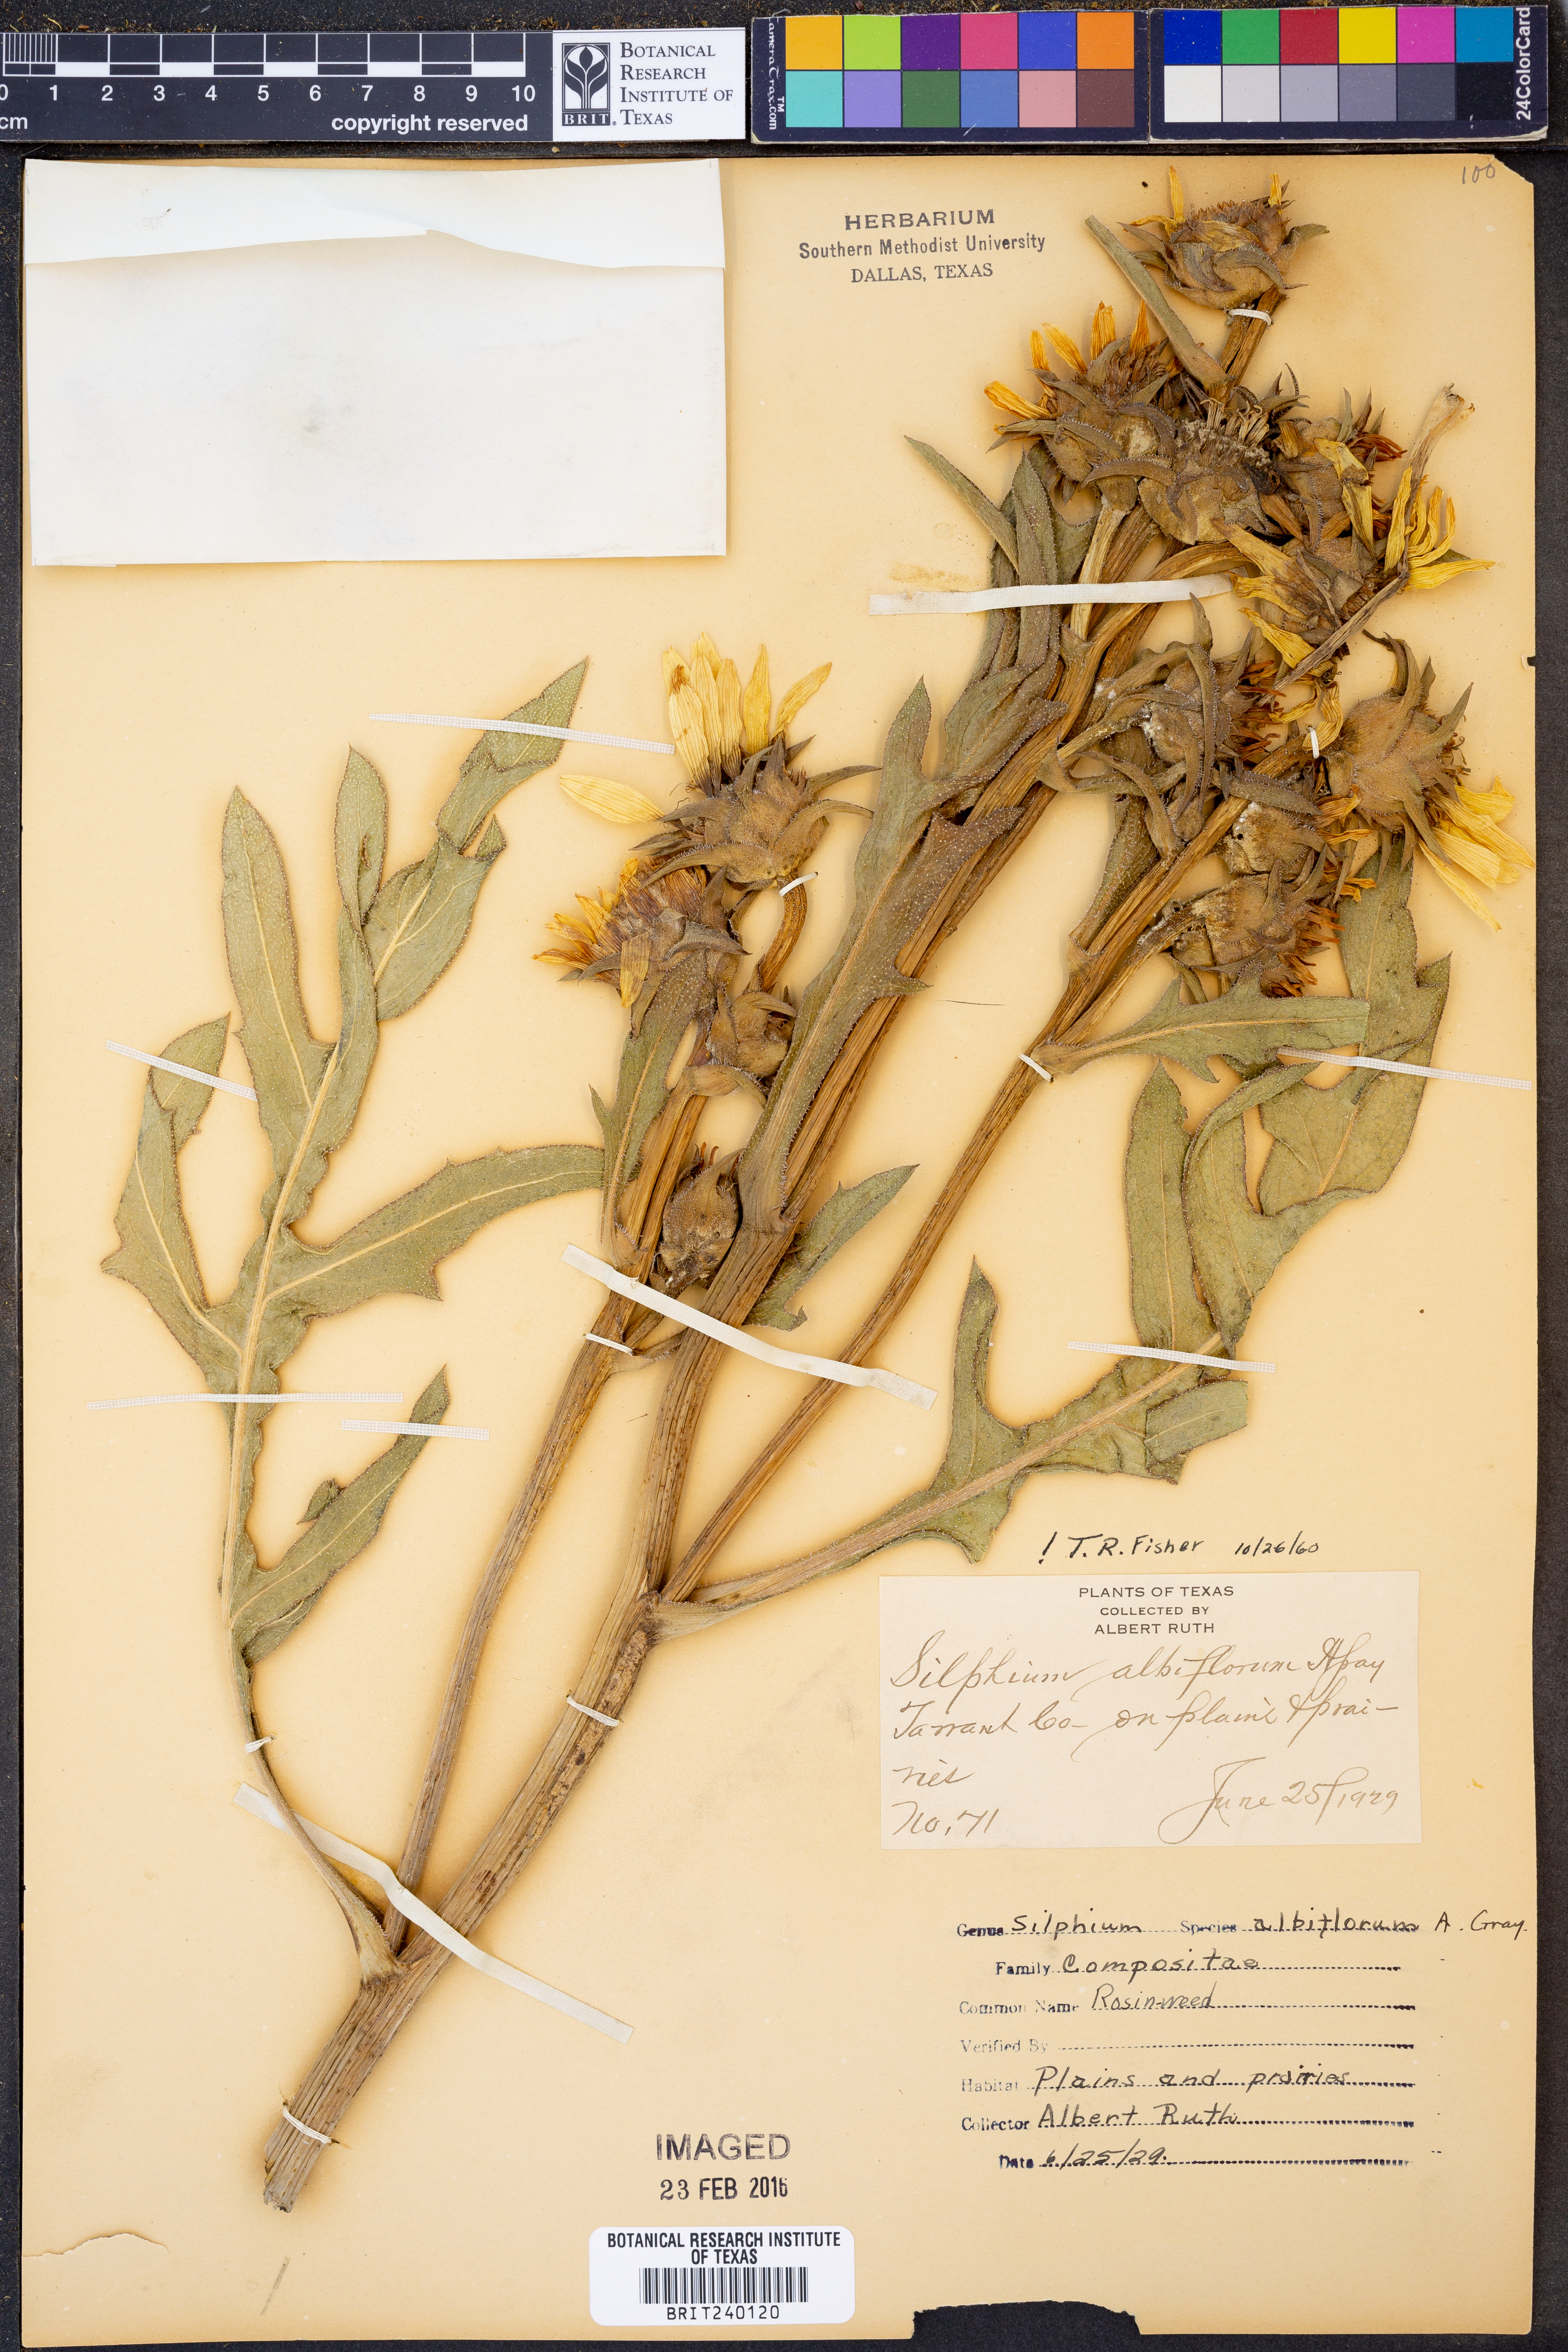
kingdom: Plantae
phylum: Tracheophyta
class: Magnoliopsida
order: Asterales
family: Asteraceae
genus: Silphium
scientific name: Silphium albiflorum
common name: White rosinweed
